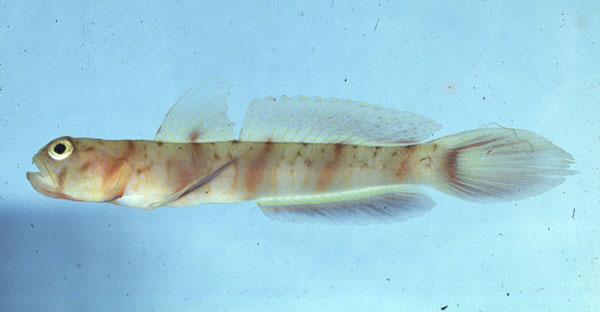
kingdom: Animalia
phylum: Chordata
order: Perciformes
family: Gobiidae
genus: Amblyeleotris
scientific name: Amblyeleotris ogasawarensis
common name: Ogasawara shrimpgoby
